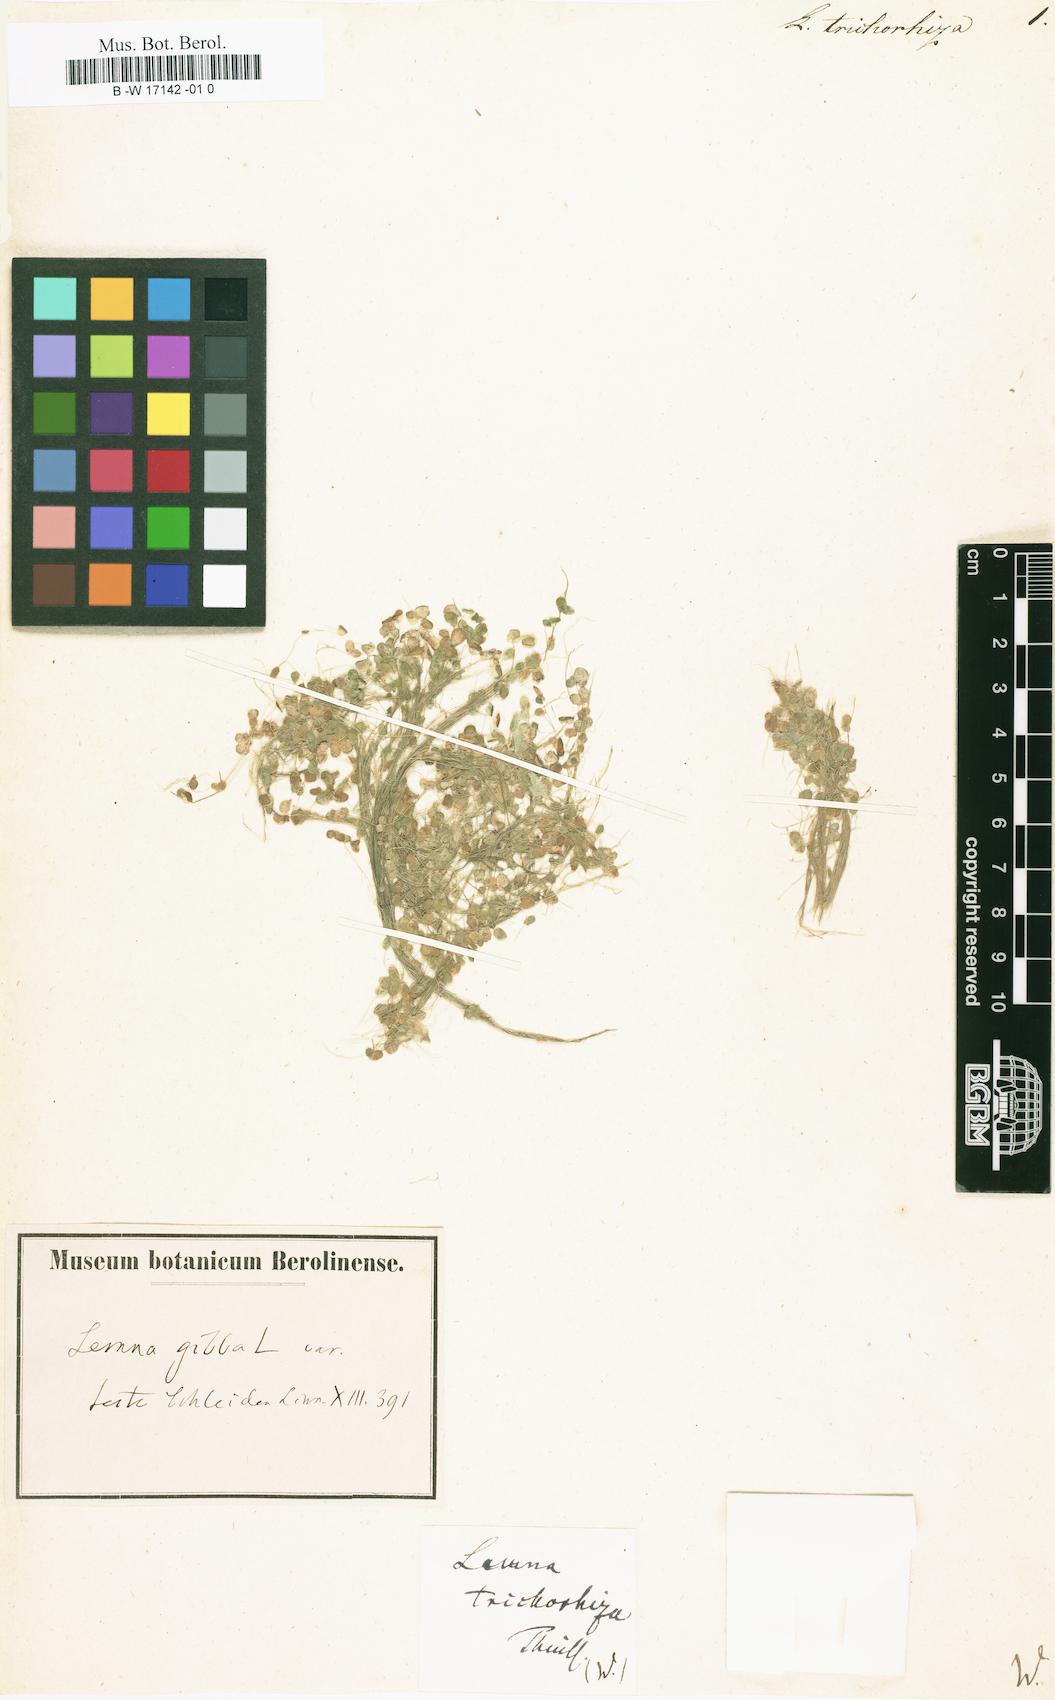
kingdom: Plantae
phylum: Tracheophyta
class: Liliopsida
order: Alismatales
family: Araceae
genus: Lemna
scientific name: Lemna gibba
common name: Fat duckweed
